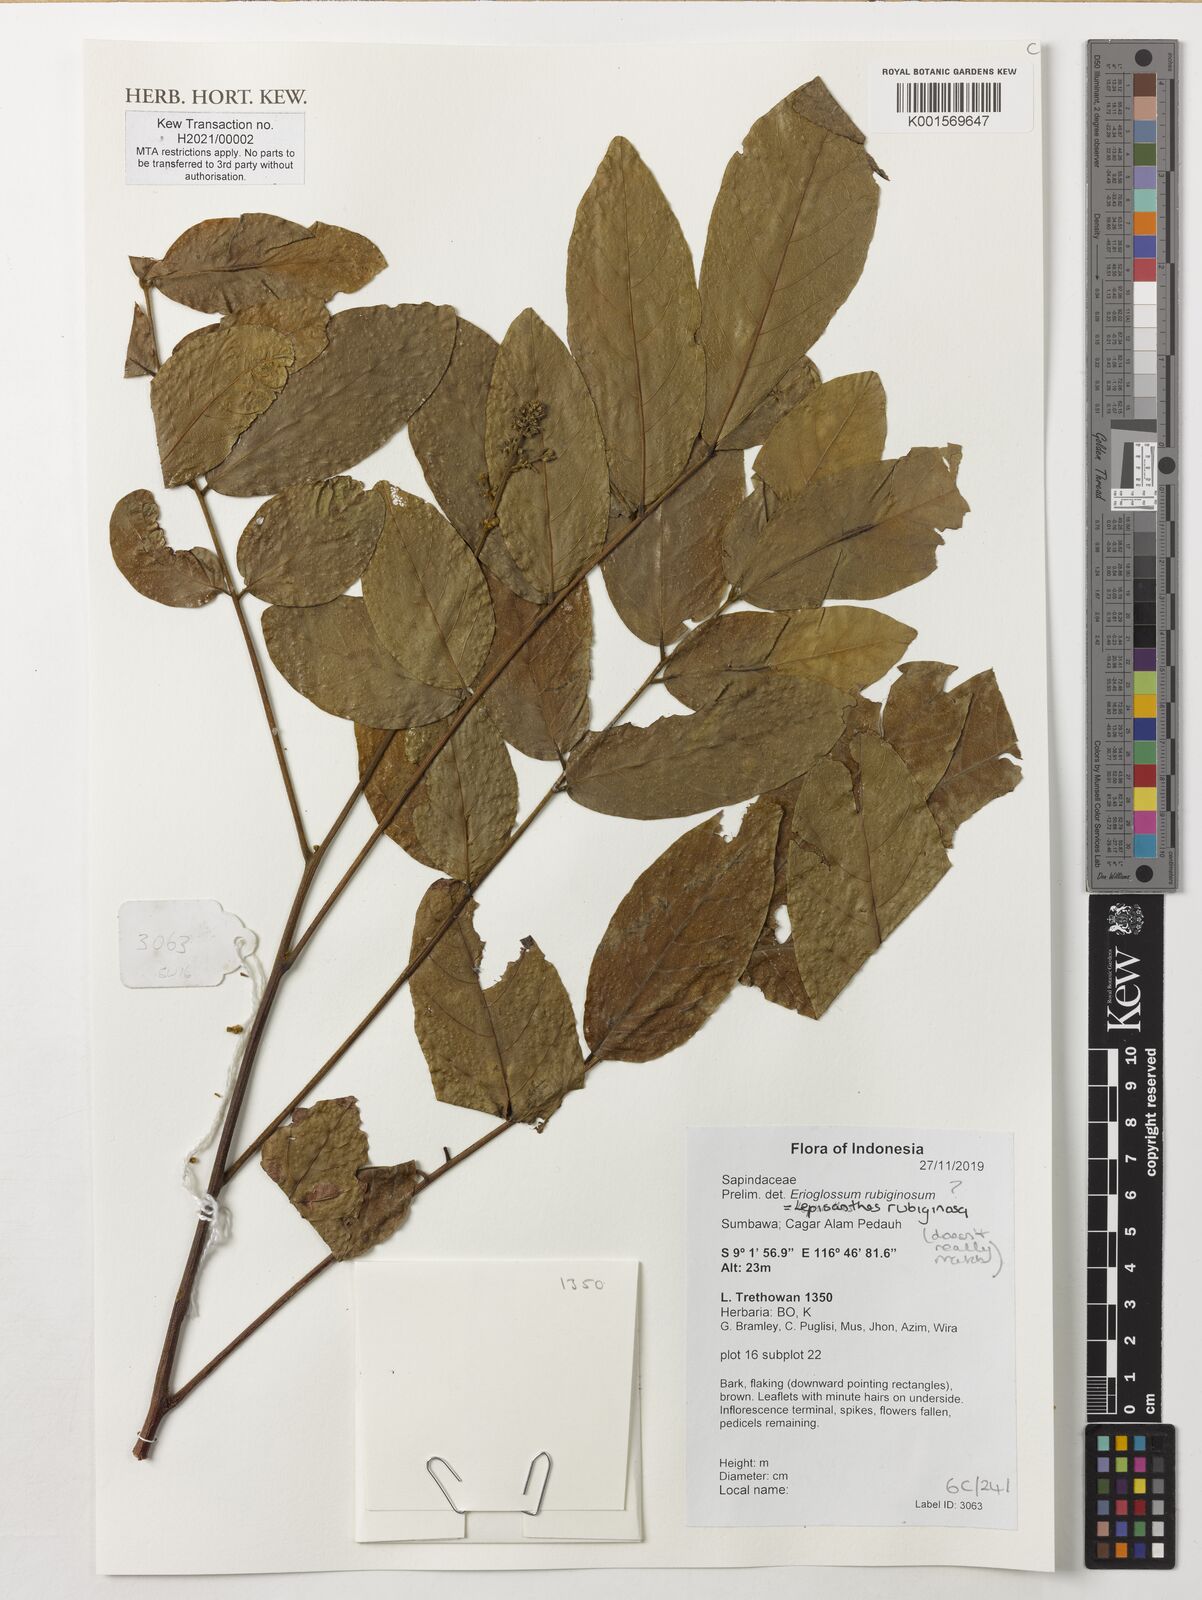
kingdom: Plantae
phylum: Tracheophyta
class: Magnoliopsida
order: Sapindales
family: Sapindaceae
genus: Lepisanthes
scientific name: Lepisanthes rubiginosa
